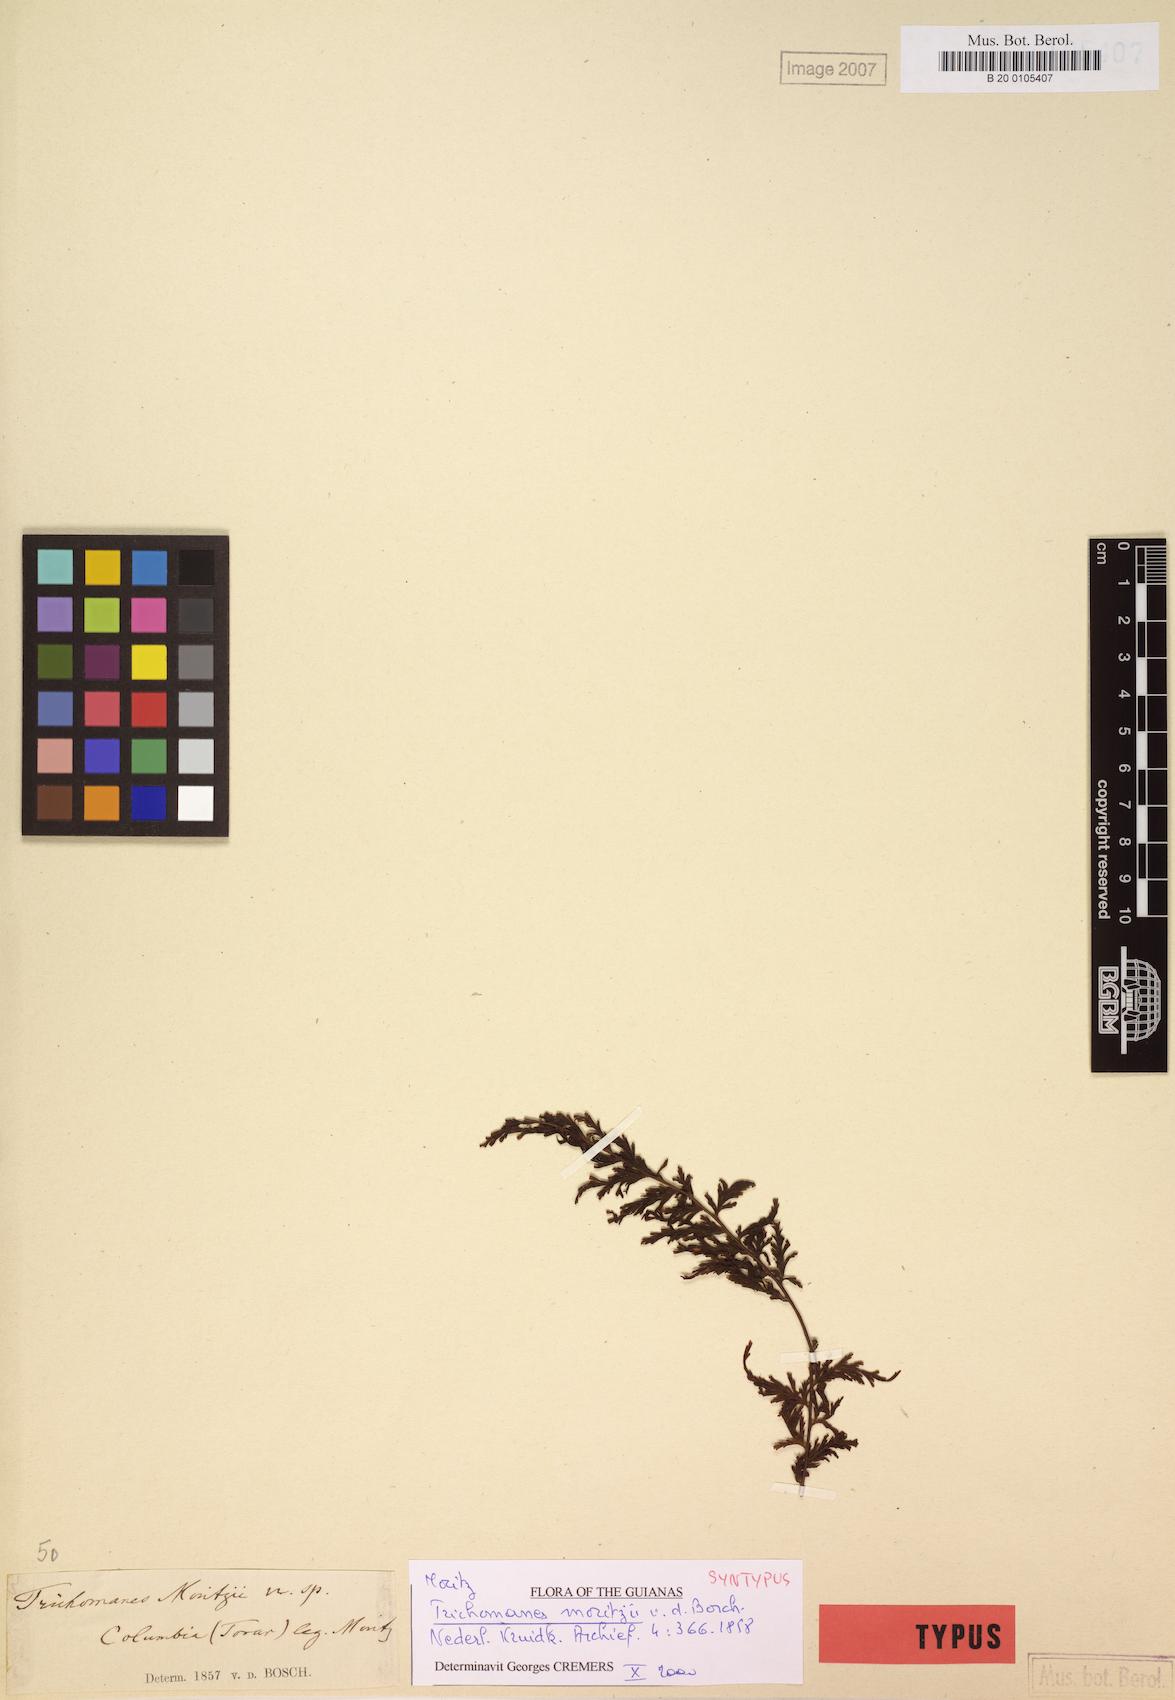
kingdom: Plantae
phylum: Tracheophyta
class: Polypodiopsida
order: Hymenophyllales
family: Hymenophyllaceae
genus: Vandenboschia
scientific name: Vandenboschia rupestris
